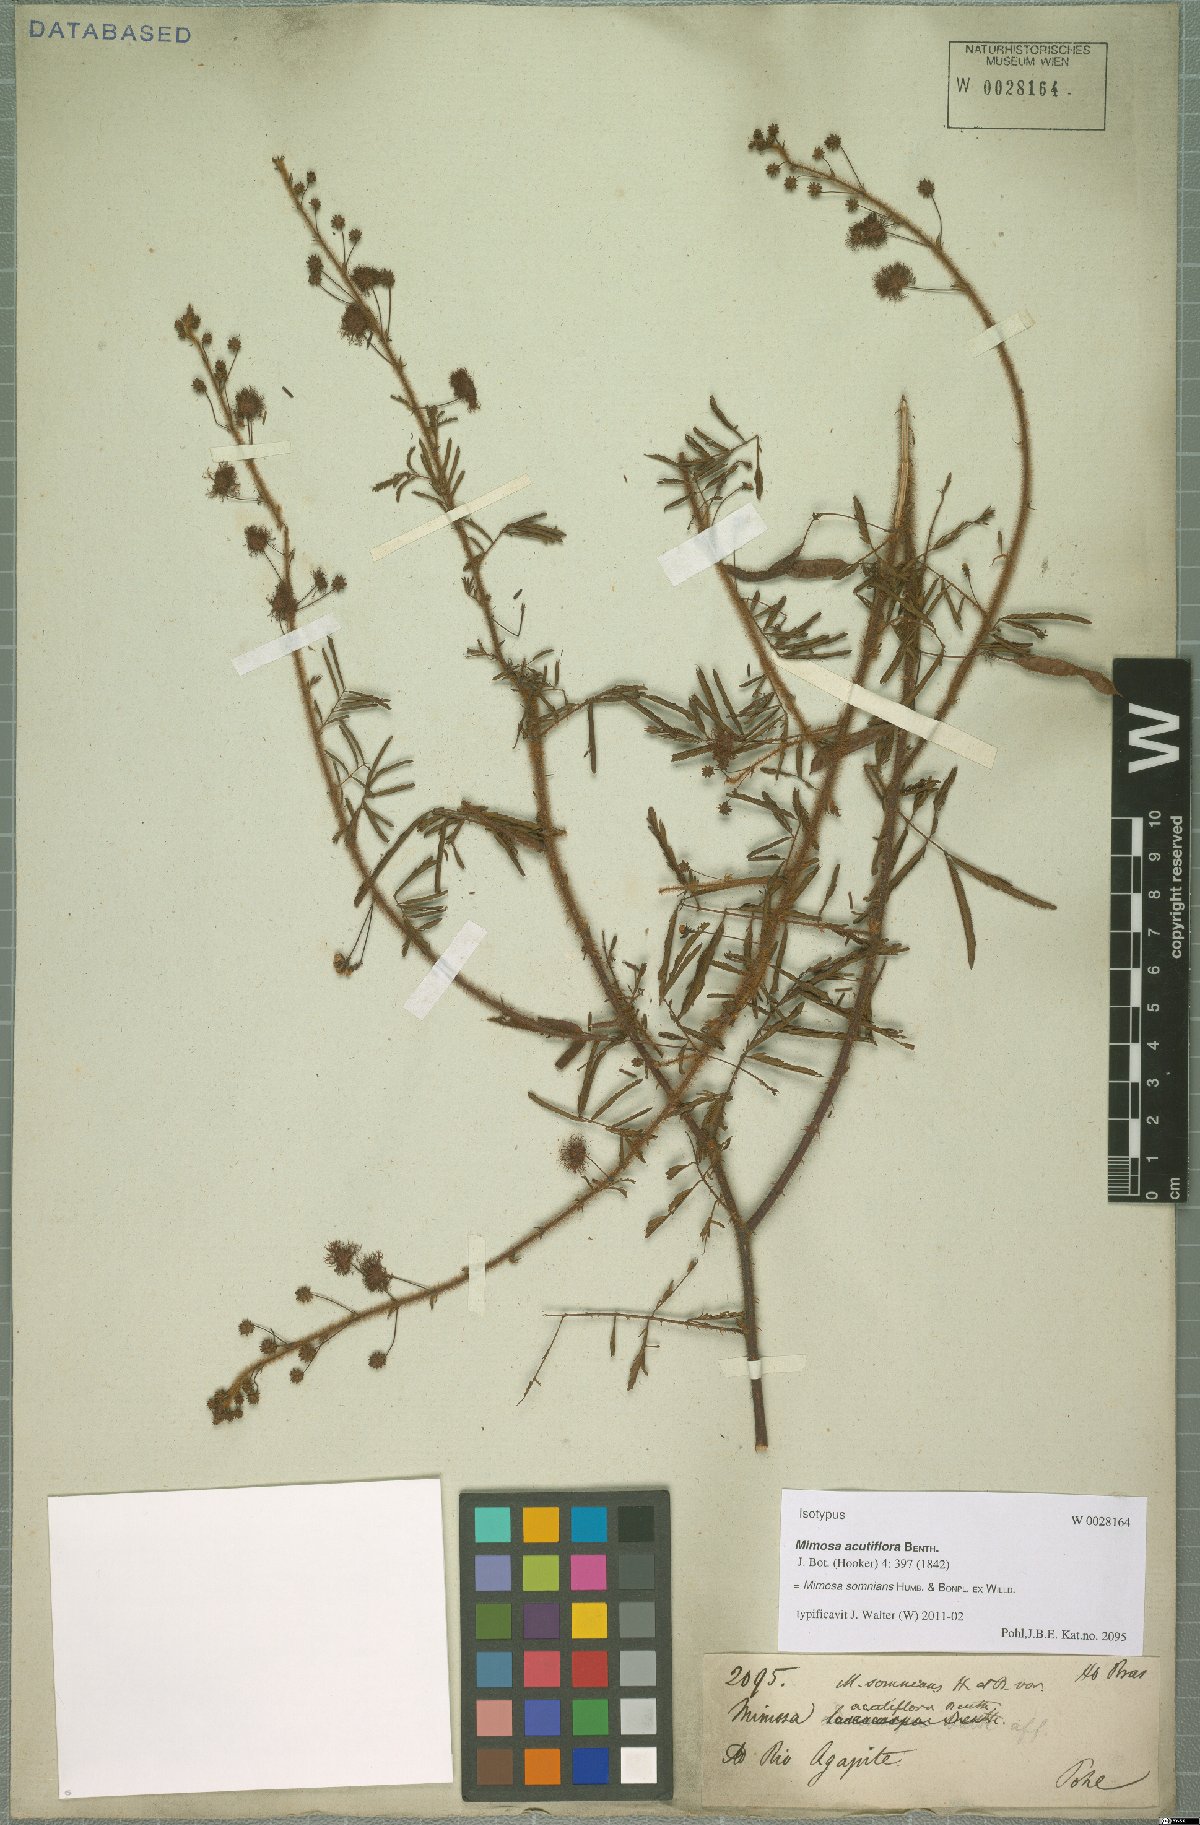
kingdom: Plantae
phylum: Tracheophyta
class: Magnoliopsida
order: Fabales
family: Fabaceae
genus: Mimosa
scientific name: Mimosa somnians
